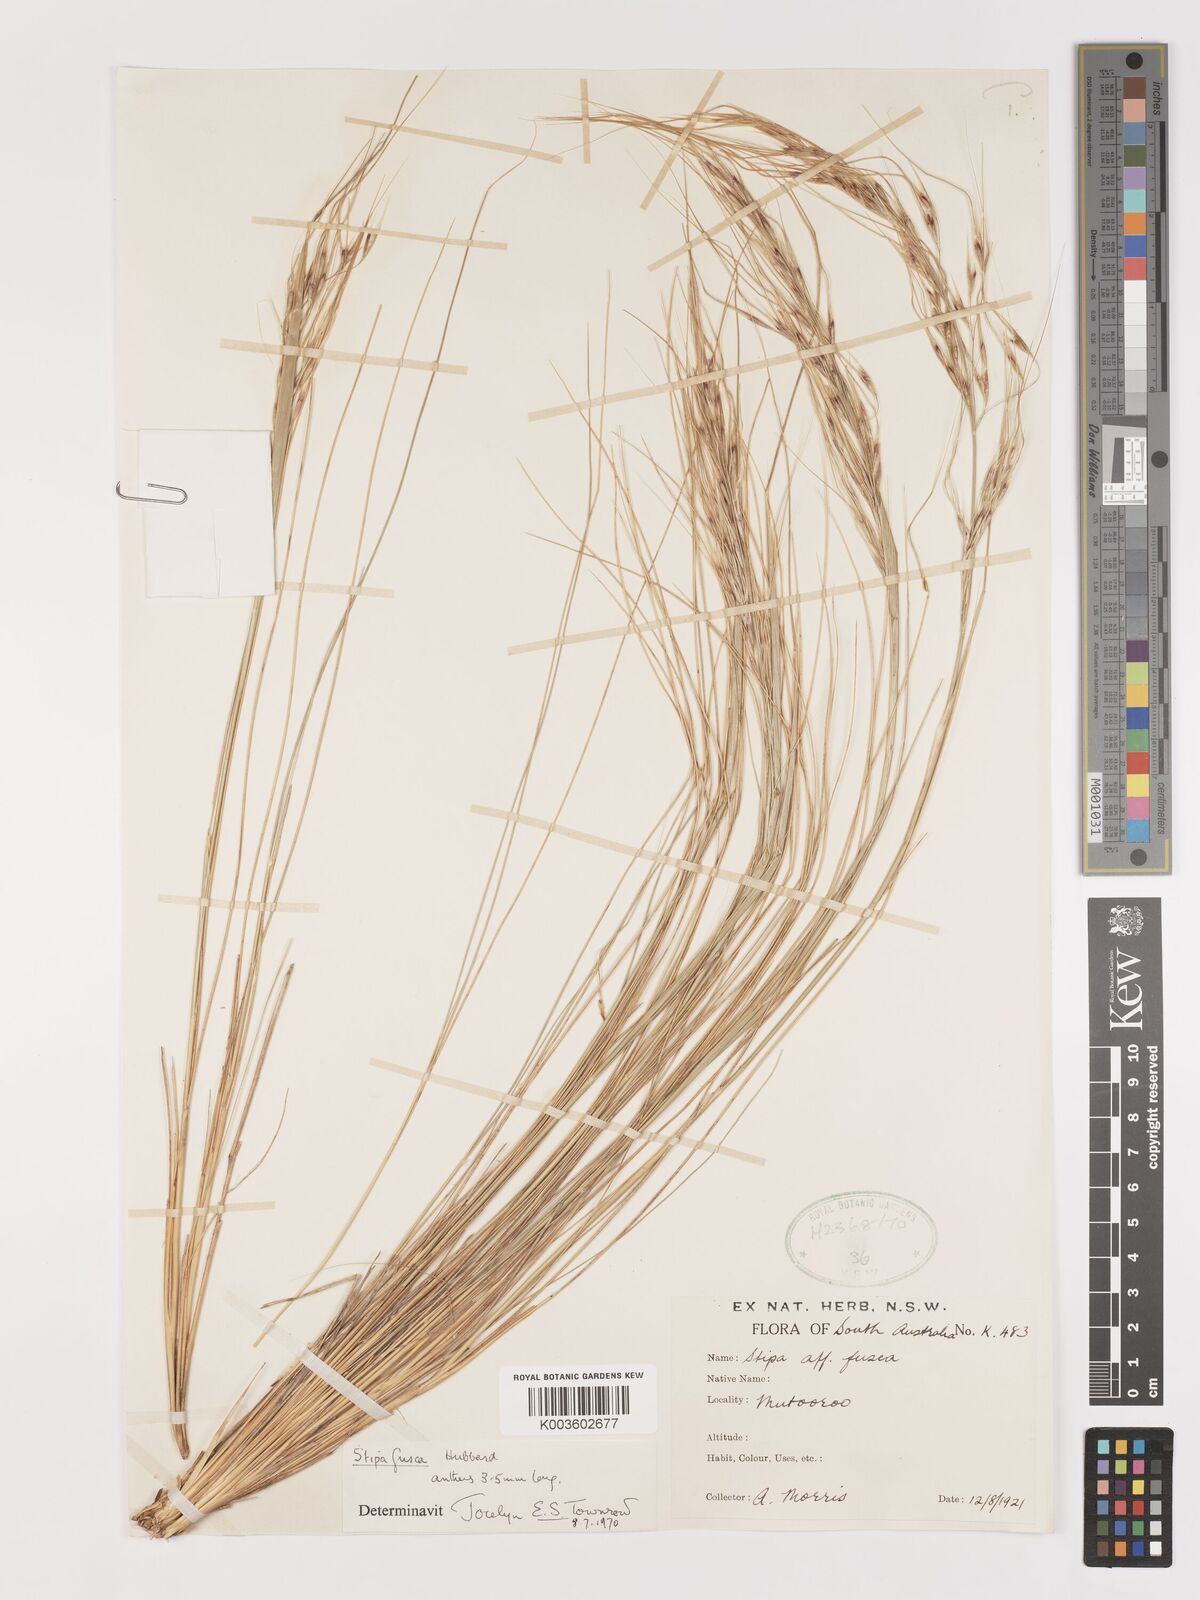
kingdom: Plantae
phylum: Tracheophyta
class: Liliopsida
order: Poales
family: Poaceae
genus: Austrostipa
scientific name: Austrostipa eremophila
